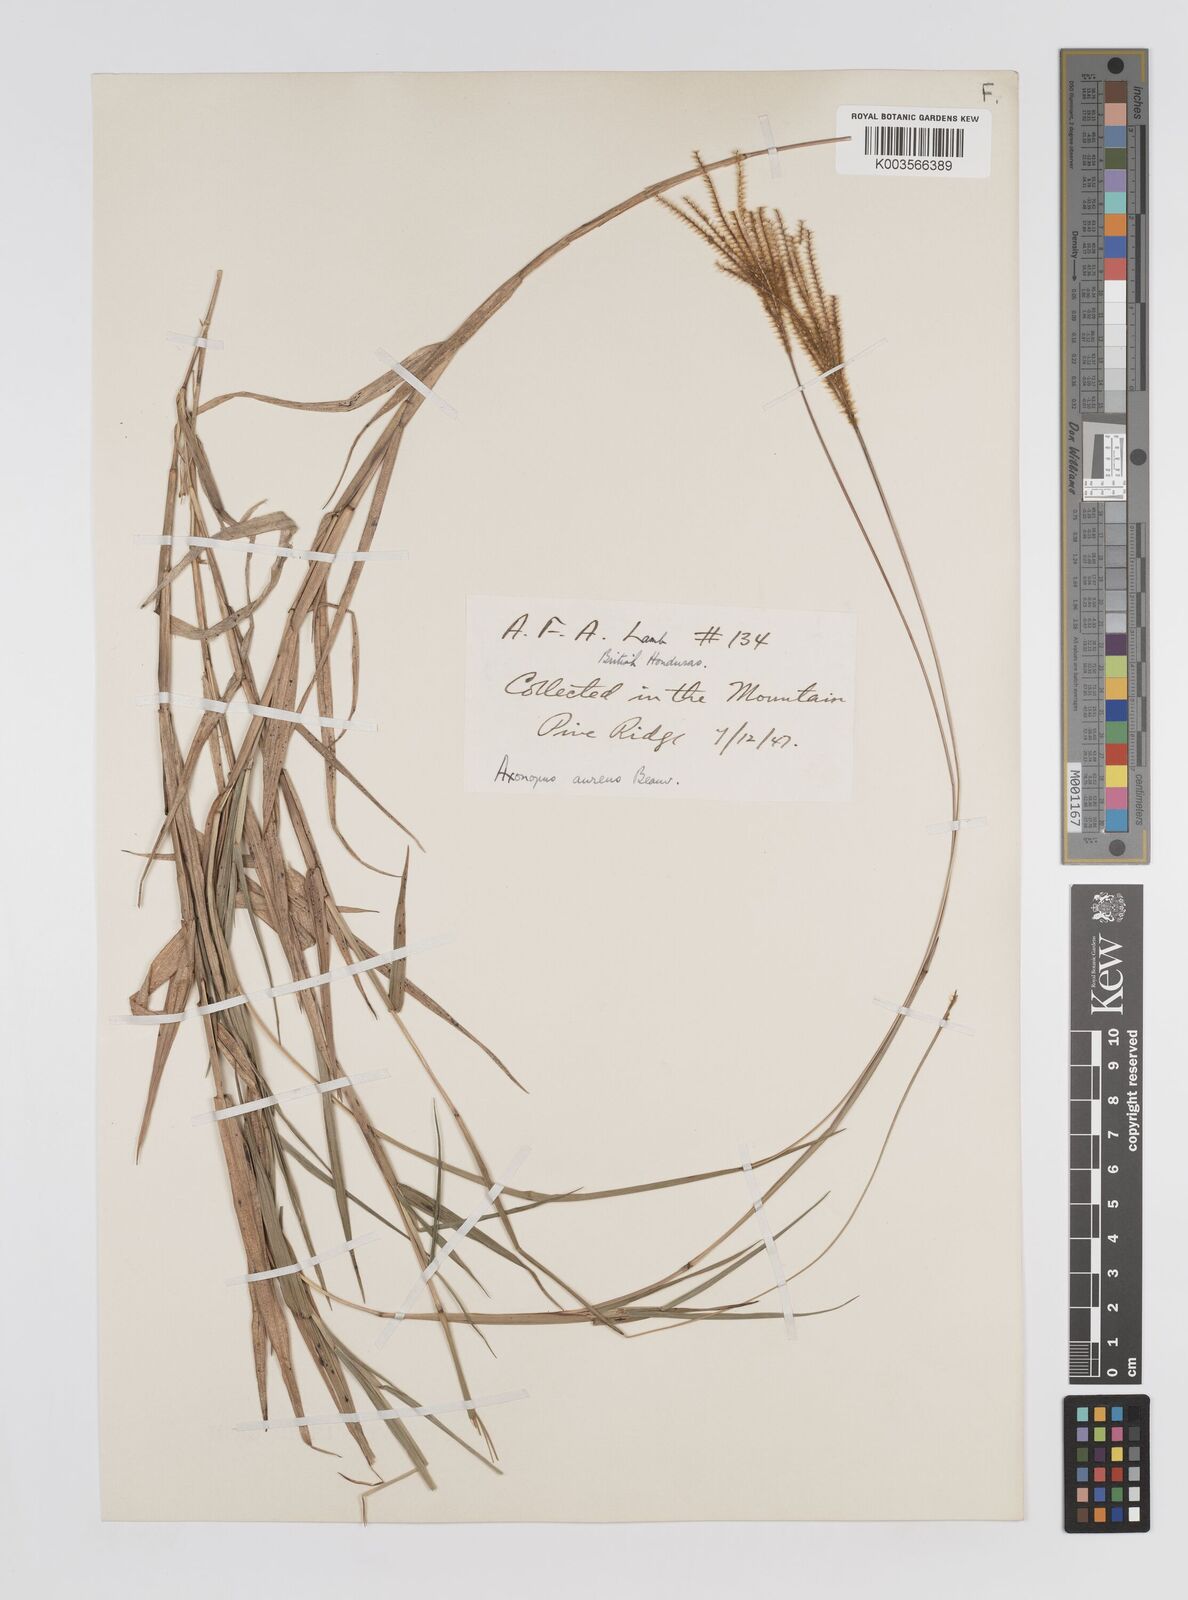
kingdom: Plantae
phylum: Tracheophyta
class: Liliopsida
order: Poales
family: Poaceae
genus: Axonopus
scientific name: Axonopus aureus
